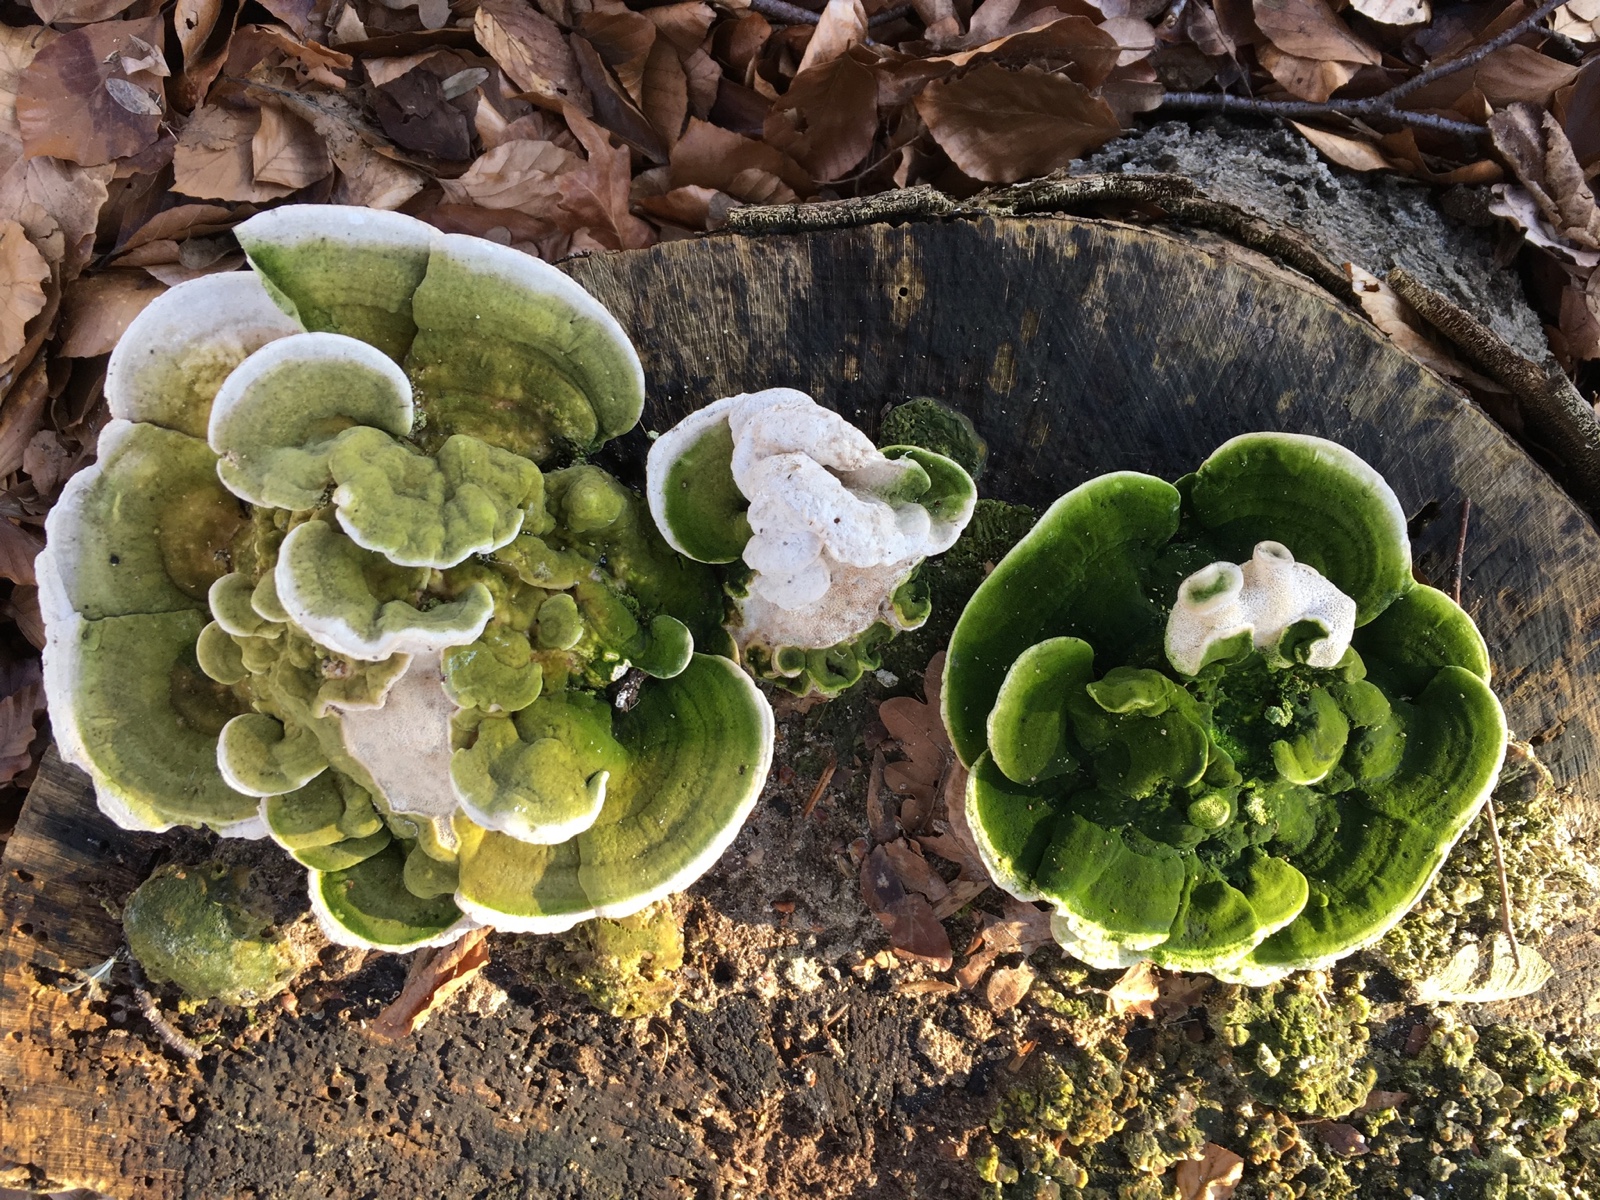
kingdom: Fungi
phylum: Basidiomycota
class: Agaricomycetes
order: Polyporales
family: Polyporaceae
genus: Trametes
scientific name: Trametes hirsuta
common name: håret læderporesvamp
